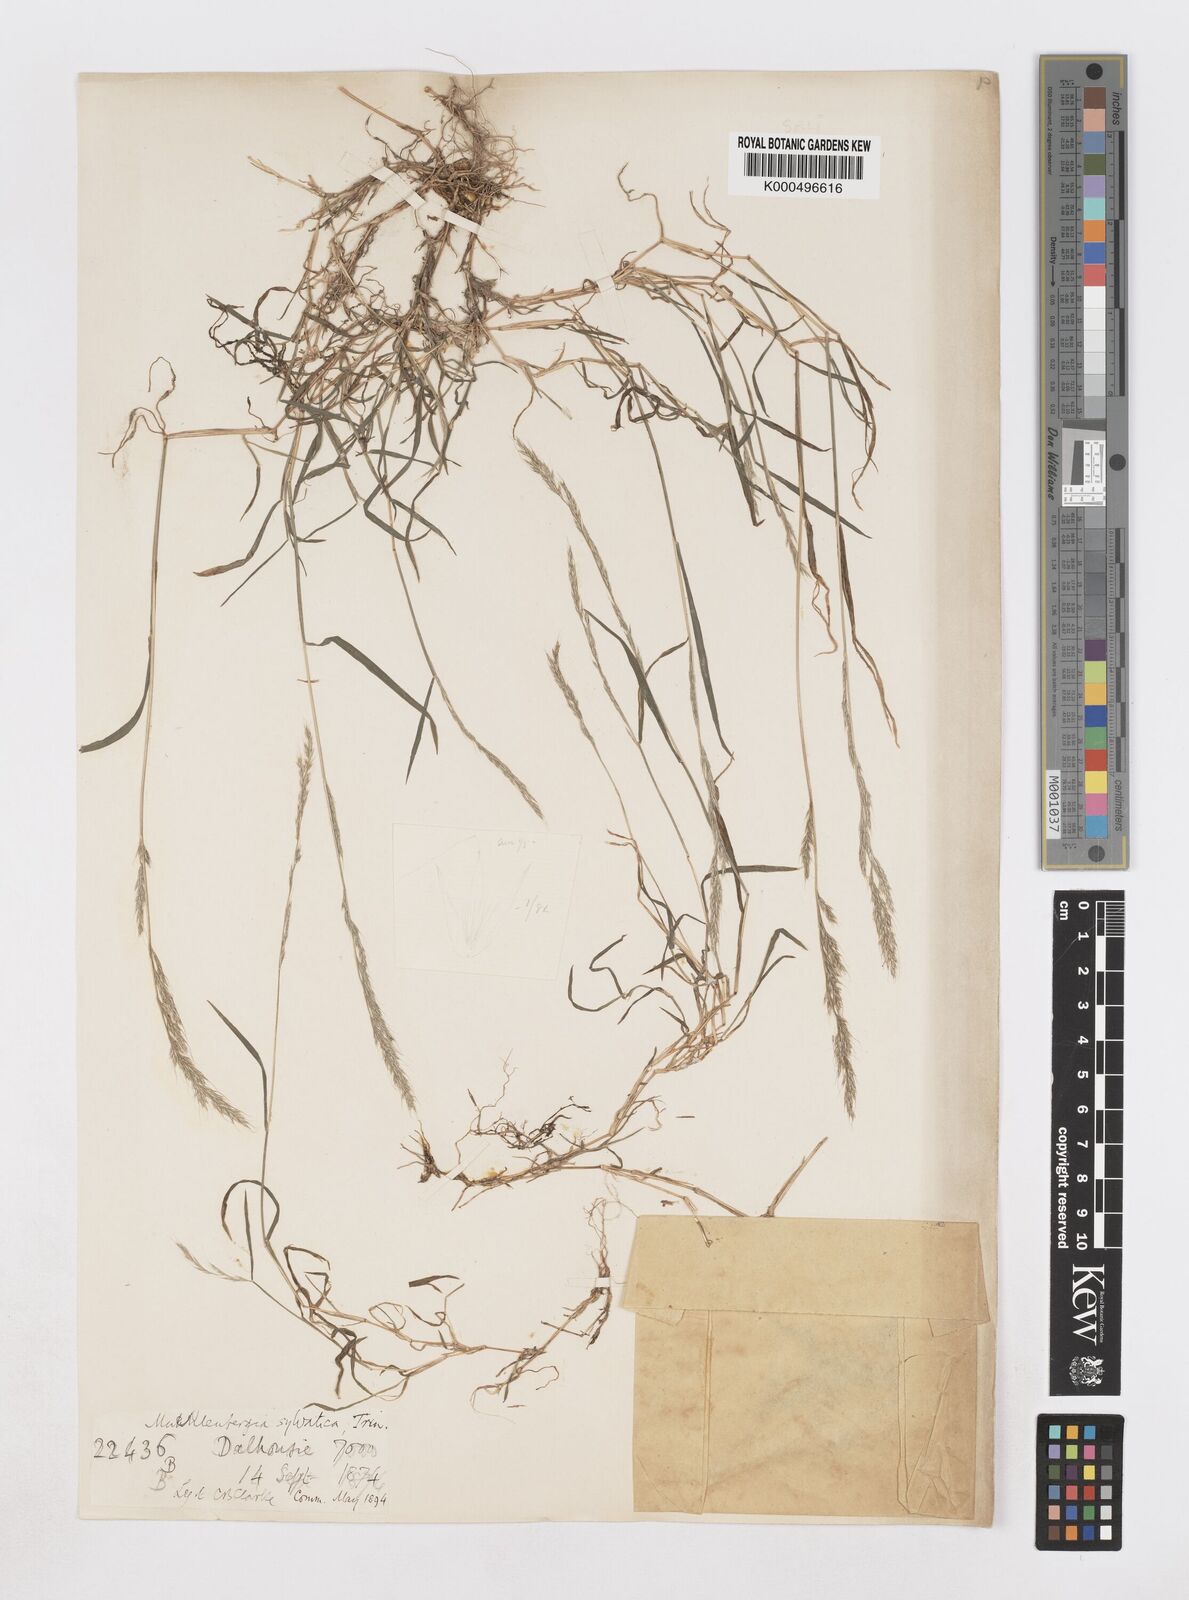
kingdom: Plantae
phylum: Tracheophyta
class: Liliopsida
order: Poales
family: Poaceae
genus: Muhlenbergia
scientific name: Muhlenbergia duthieana
